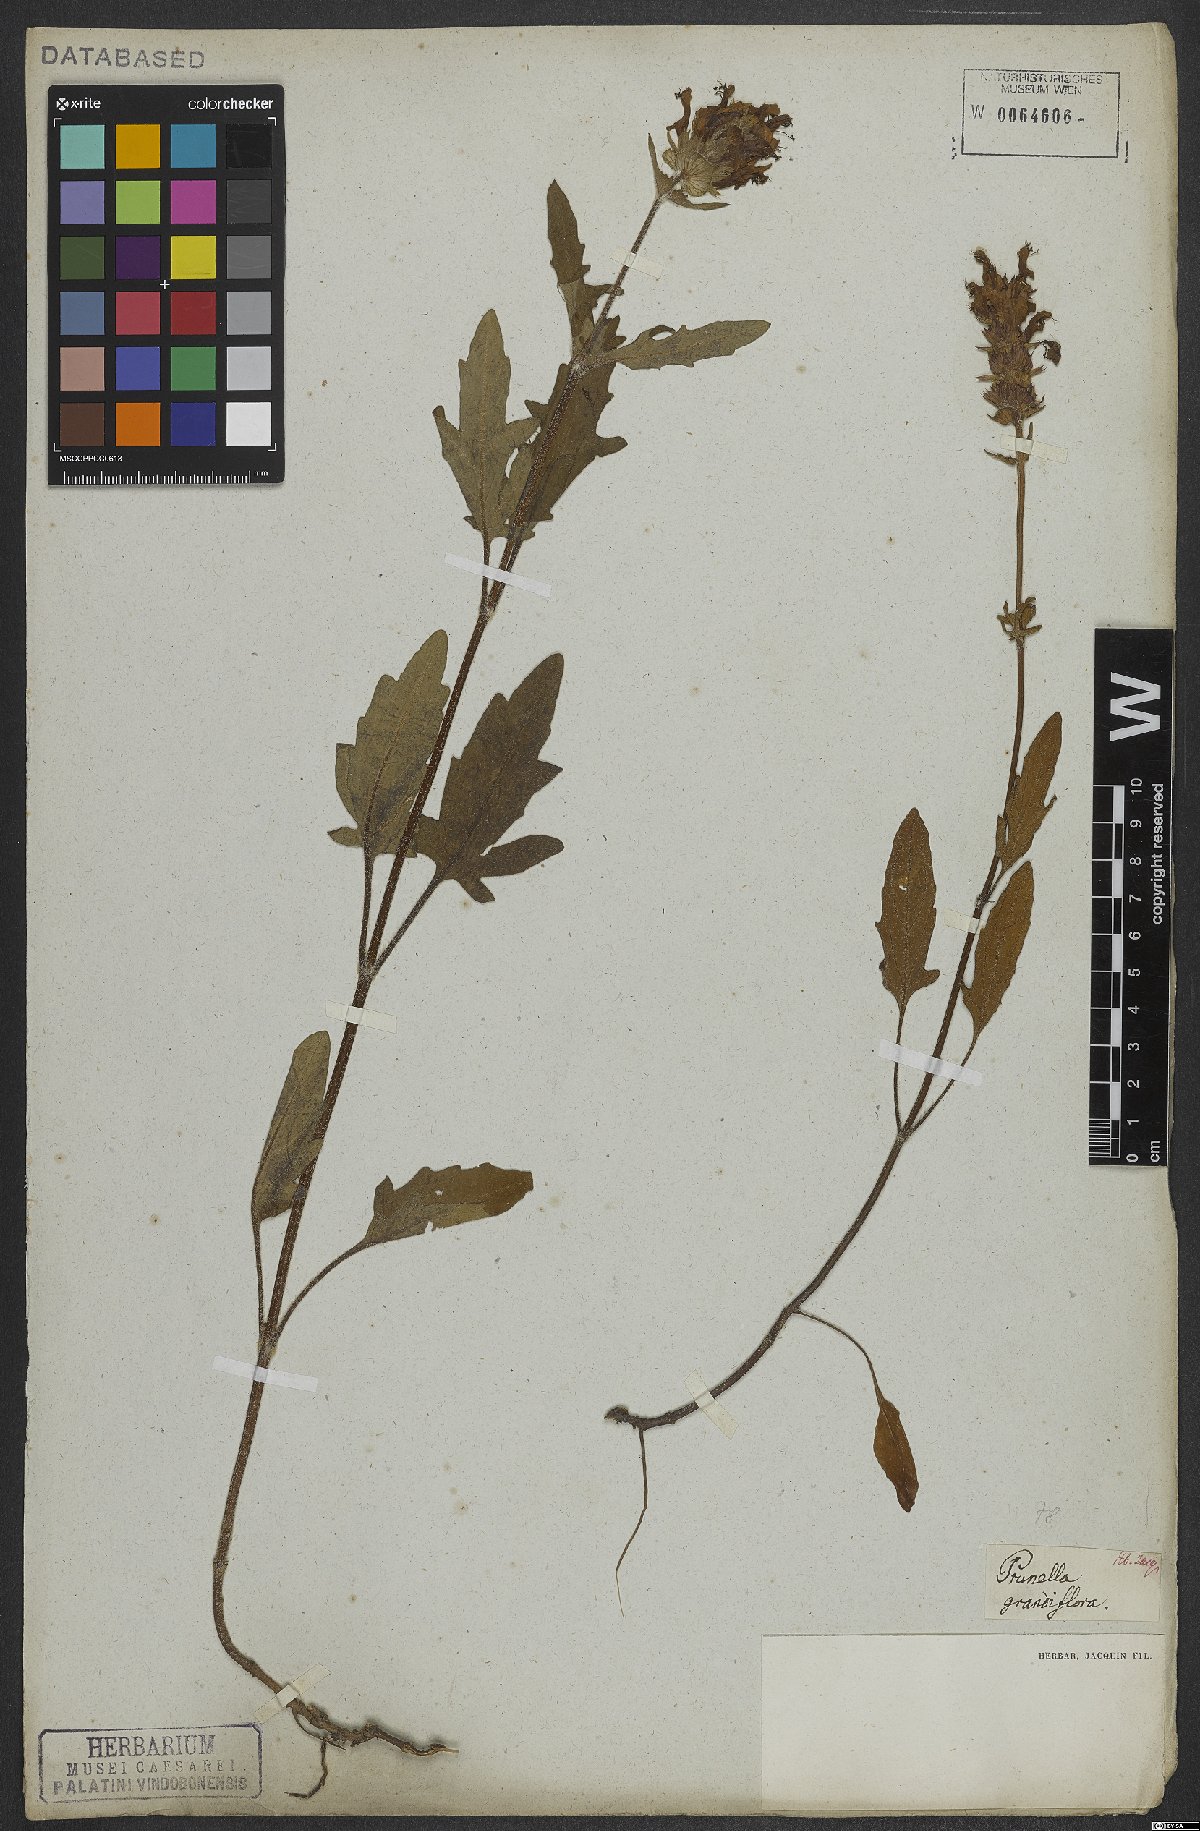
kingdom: Plantae
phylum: Tracheophyta
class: Magnoliopsida
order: Lamiales
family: Lamiaceae
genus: Prunella
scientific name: Prunella grandiflora
